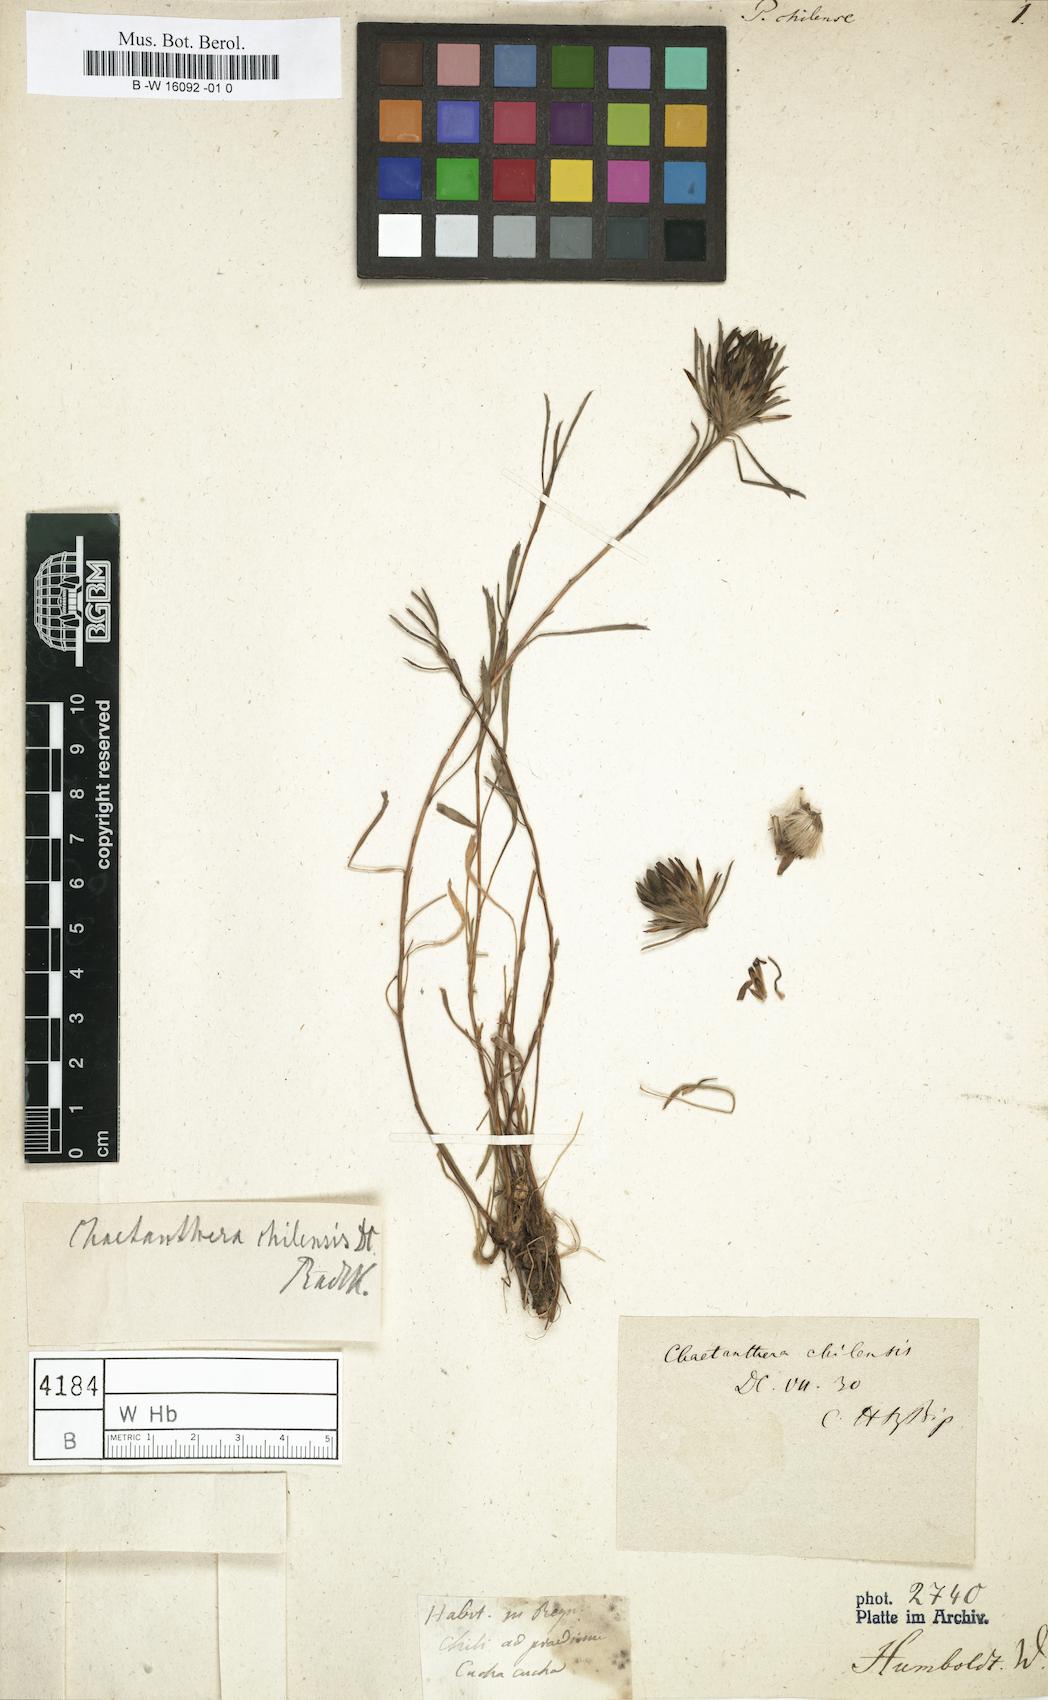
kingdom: Plantae
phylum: Tracheophyta
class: Magnoliopsida
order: Asterales
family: Asteraceae
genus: Chaetanthera
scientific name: Chaetanthera chilensis
